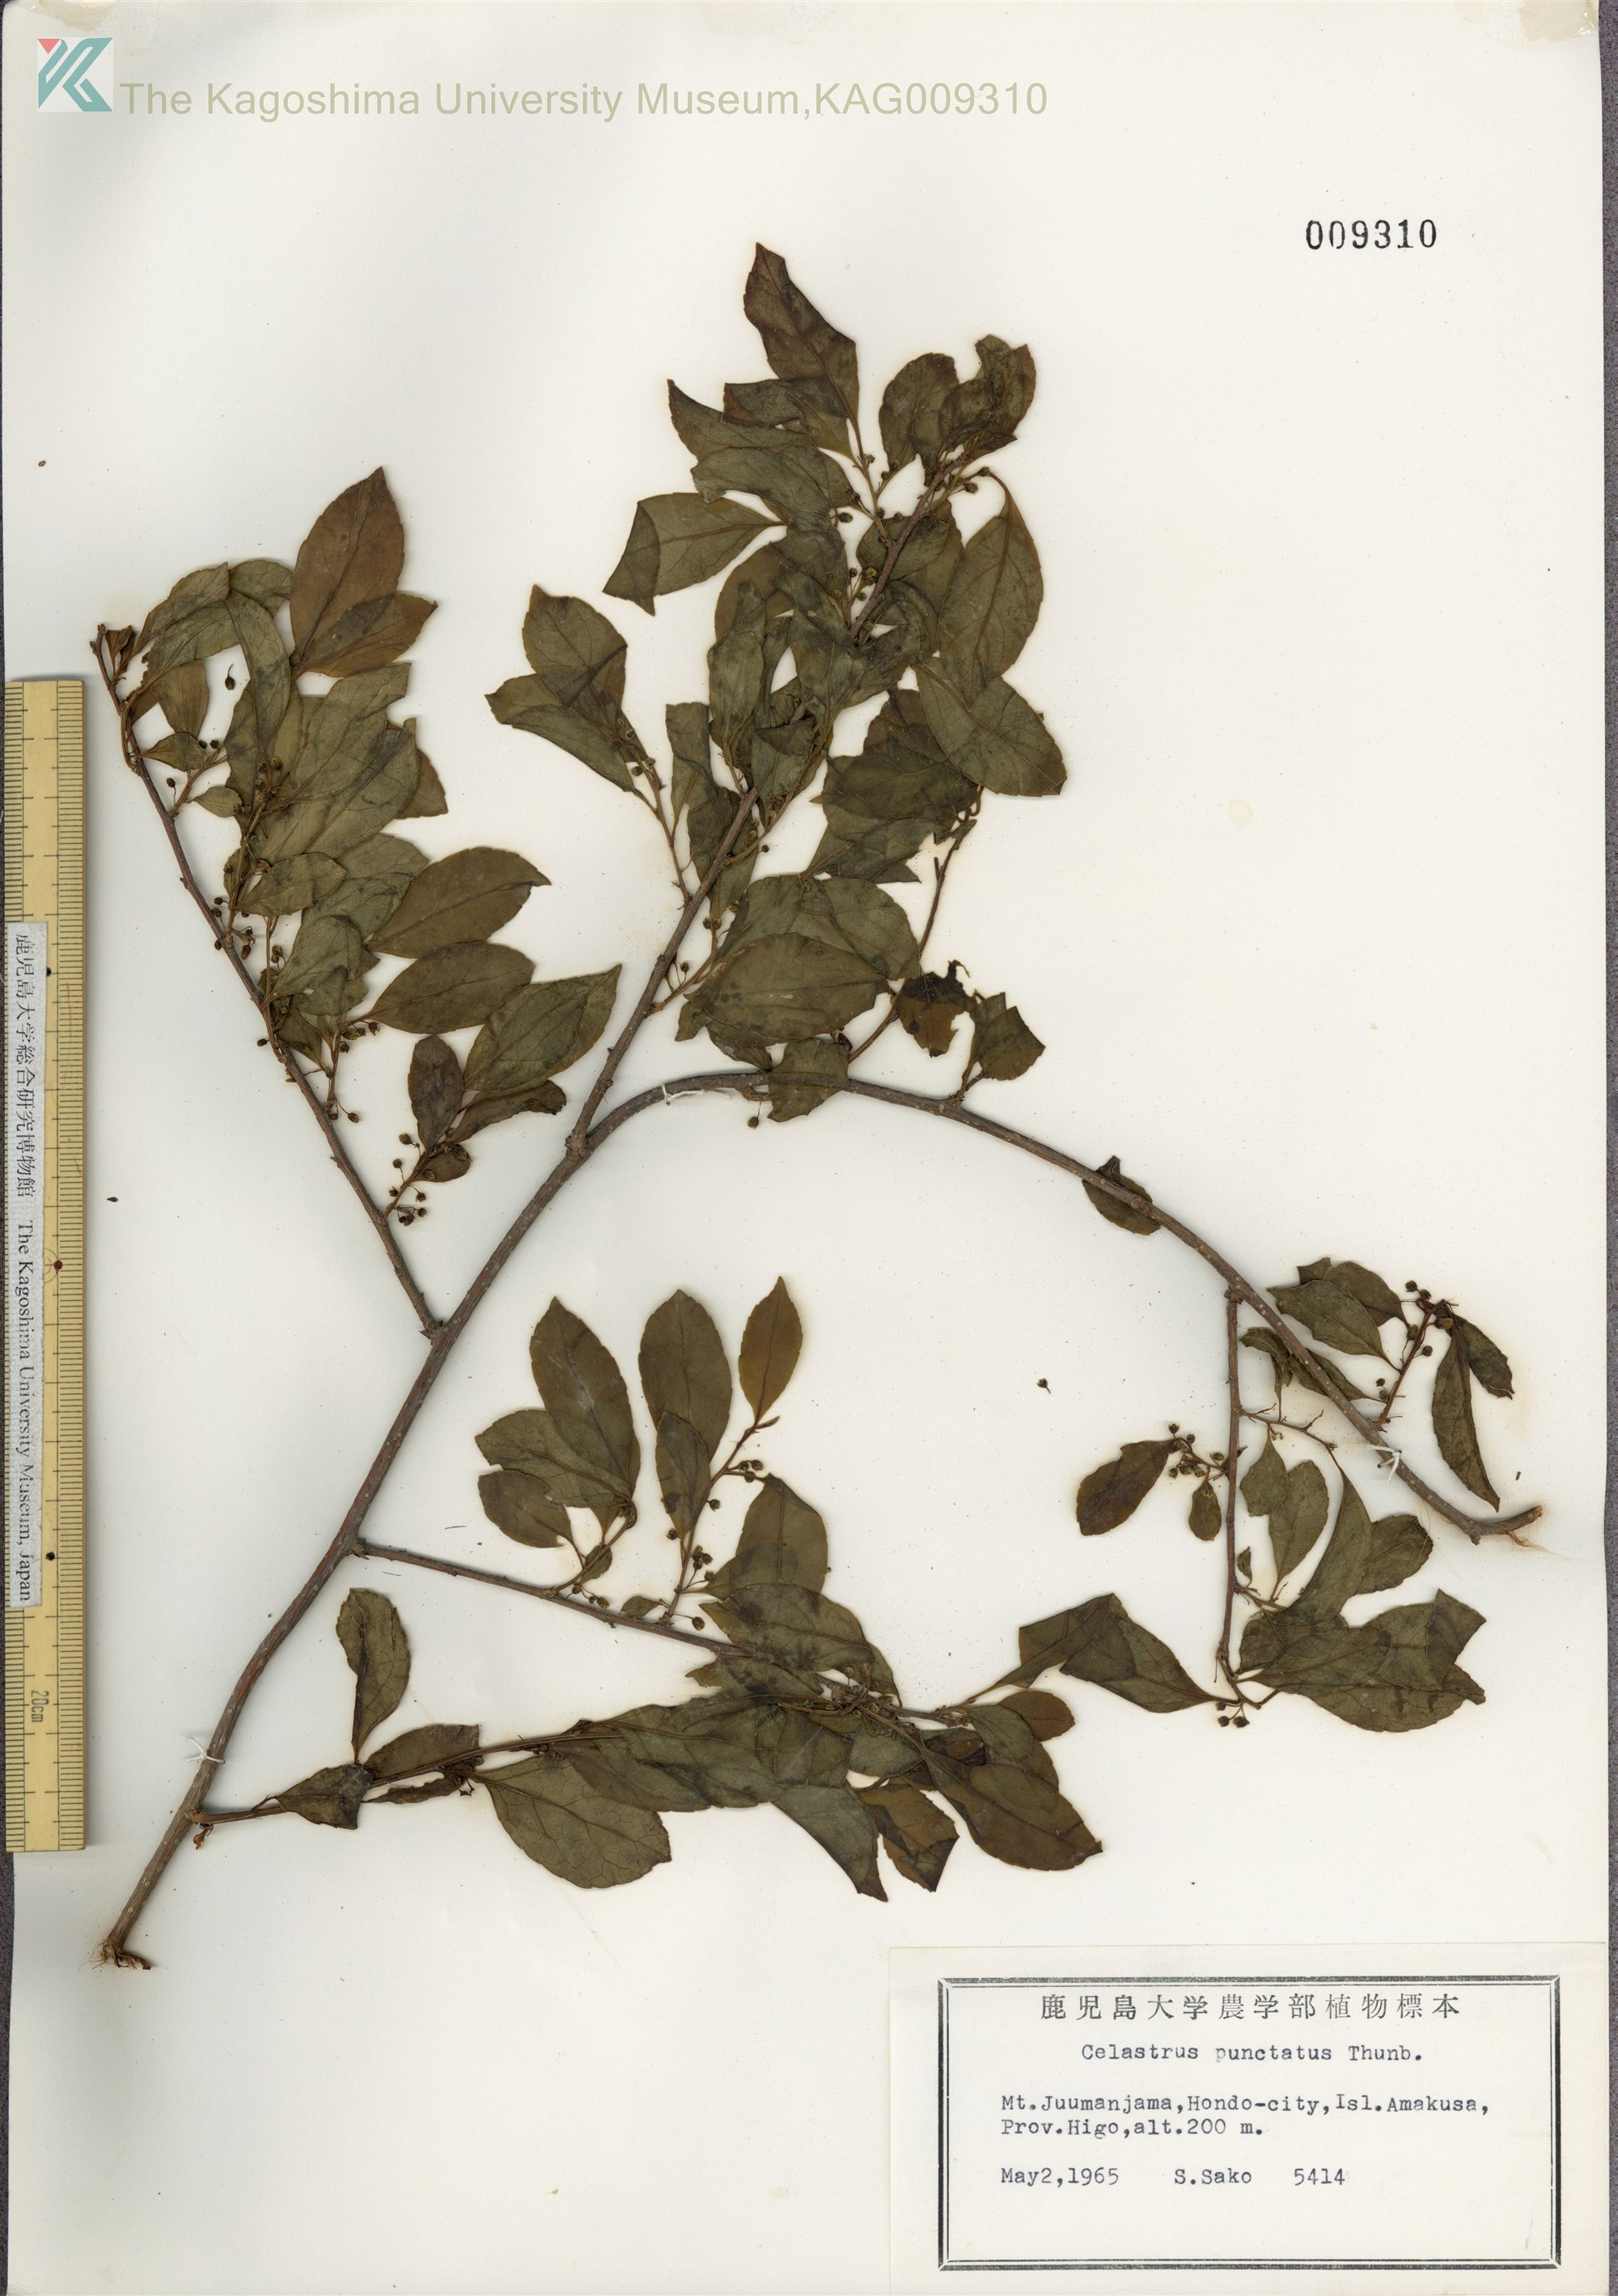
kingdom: Plantae
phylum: Tracheophyta
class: Magnoliopsida
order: Celastrales
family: Celastraceae
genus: Celastrus
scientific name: Celastrus punctatus
